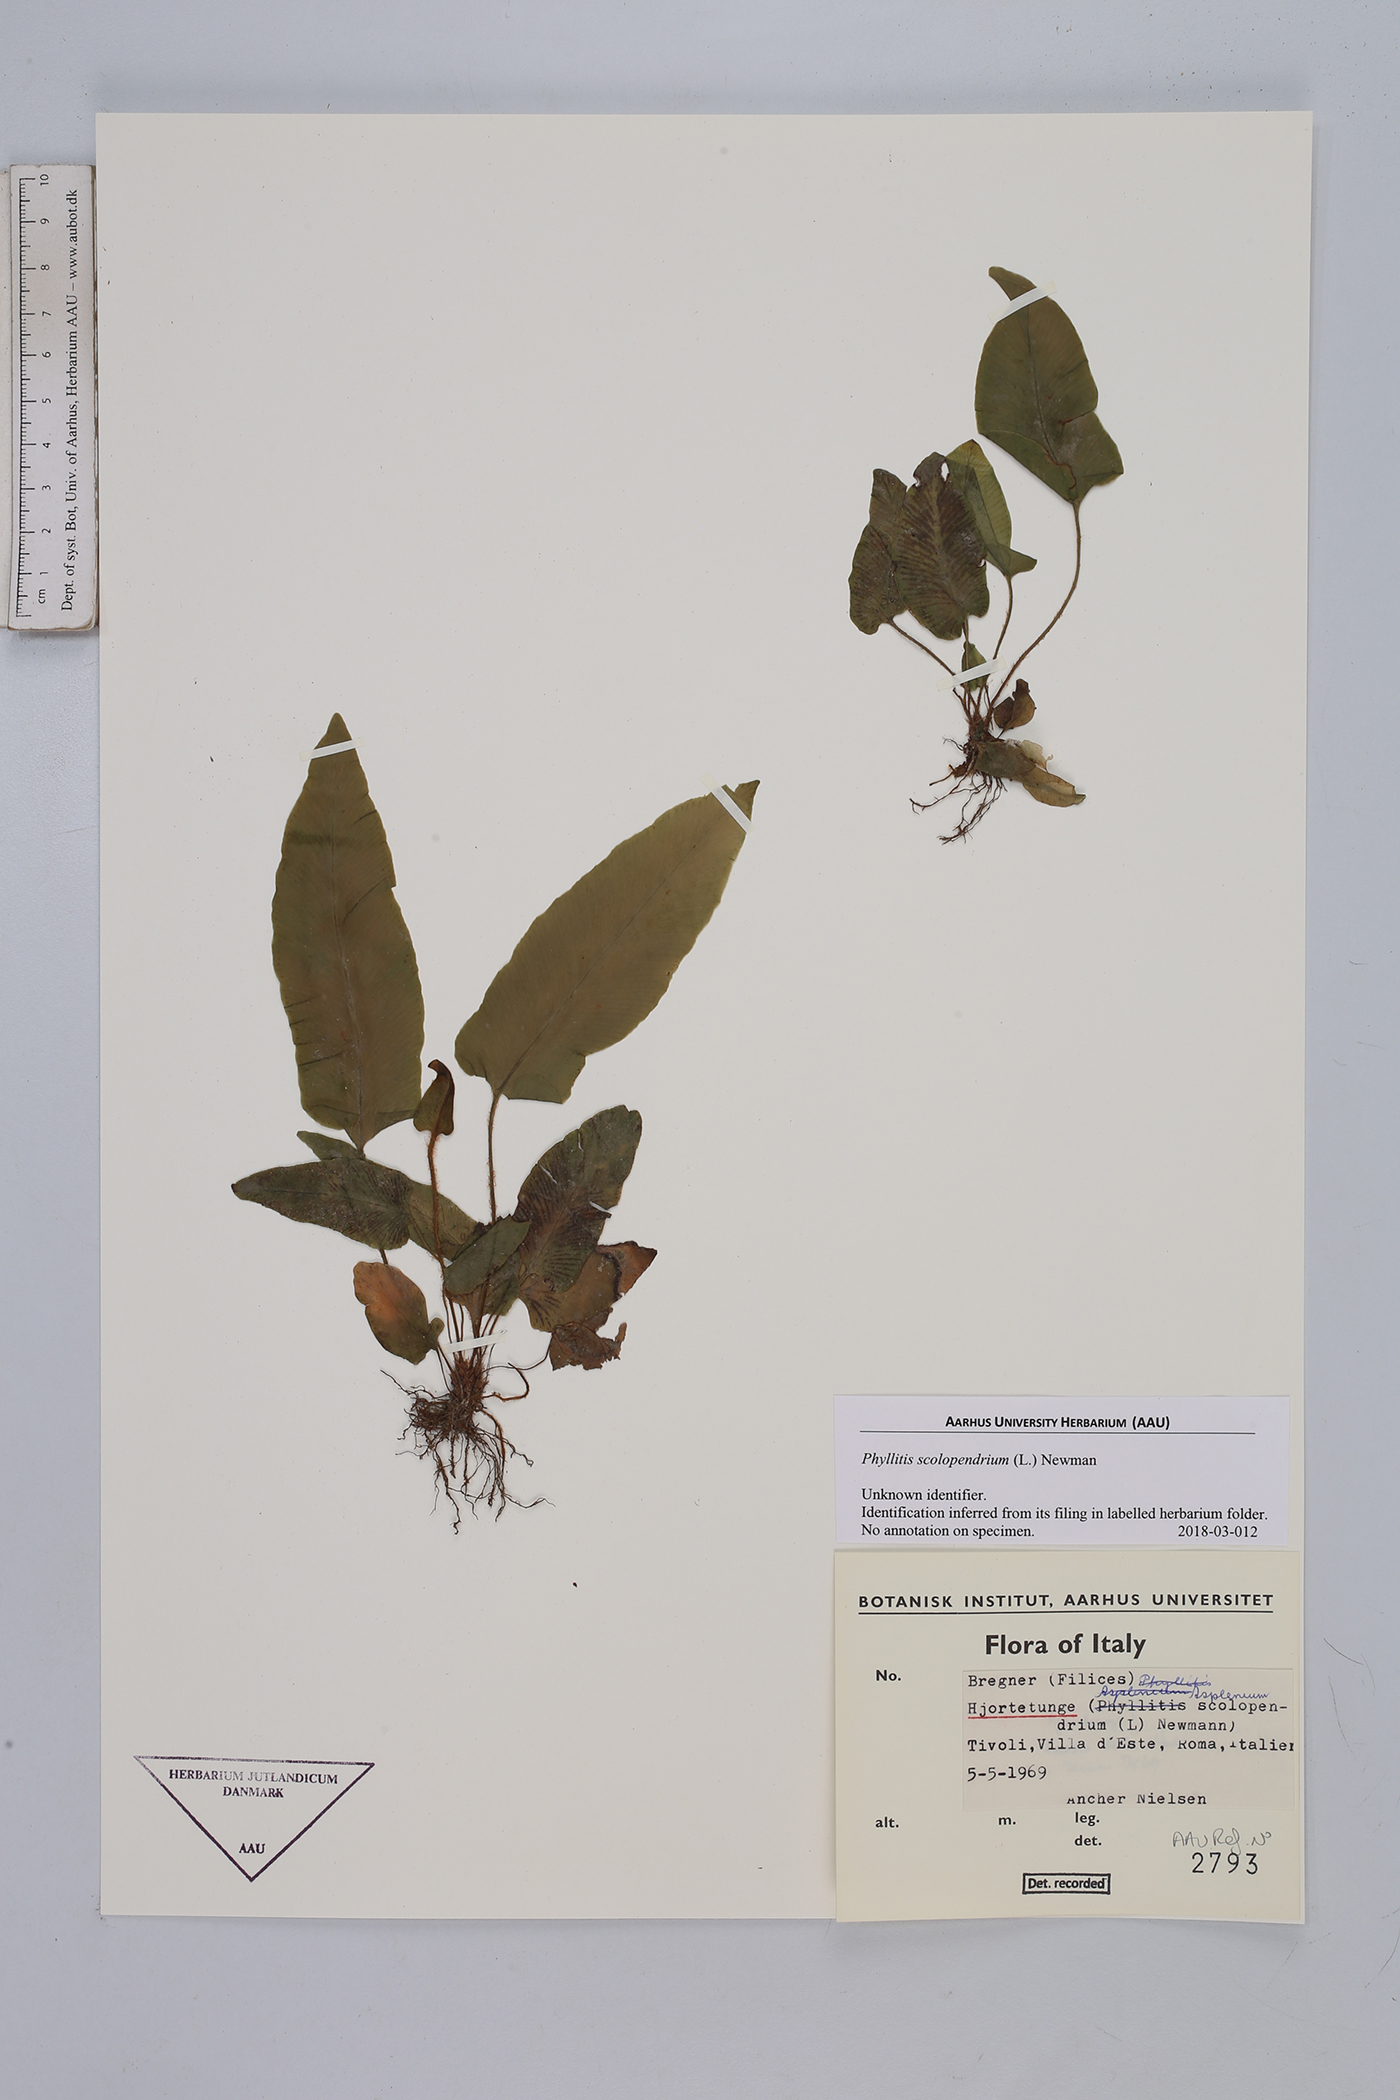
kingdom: Plantae
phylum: Tracheophyta
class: Polypodiopsida
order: Polypodiales
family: Aspleniaceae
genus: Asplenium
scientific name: Asplenium scolopendrium
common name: Hart's-tongue fern
